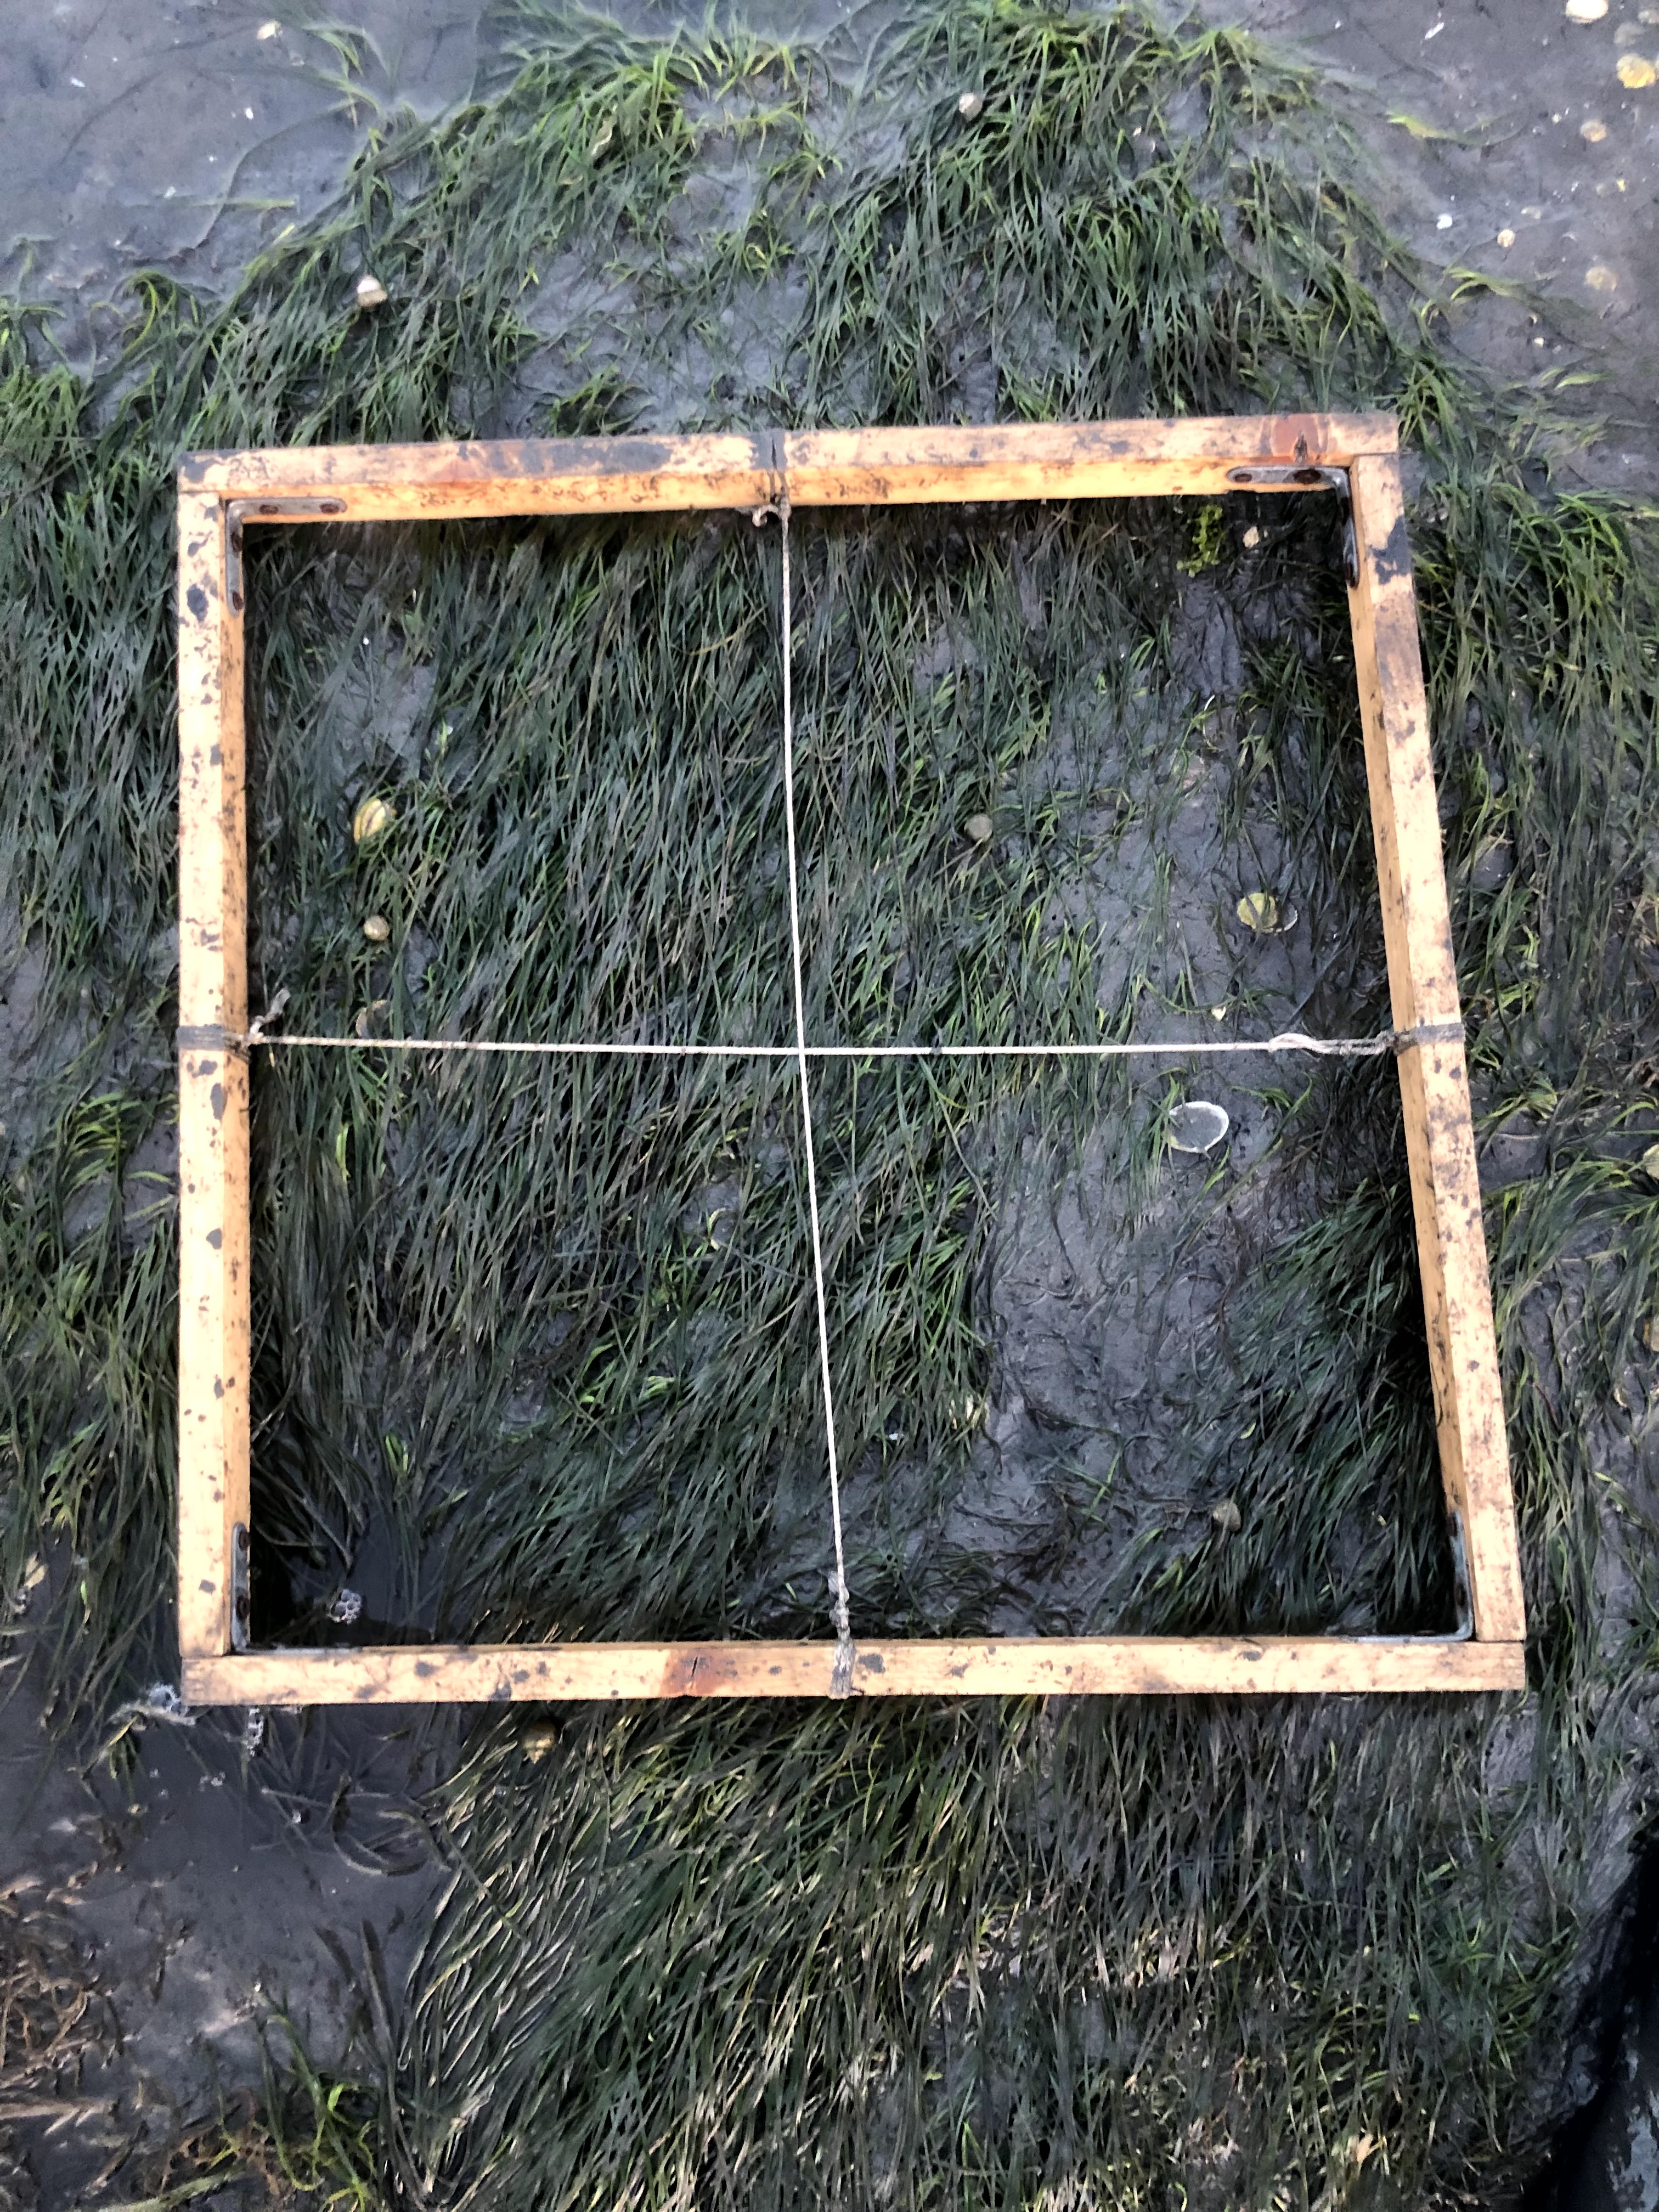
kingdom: Plantae
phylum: Tracheophyta
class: Liliopsida
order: Alismatales
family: Zosteraceae
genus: Zostera
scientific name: Zostera noltii
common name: Dwarf eelgrass
